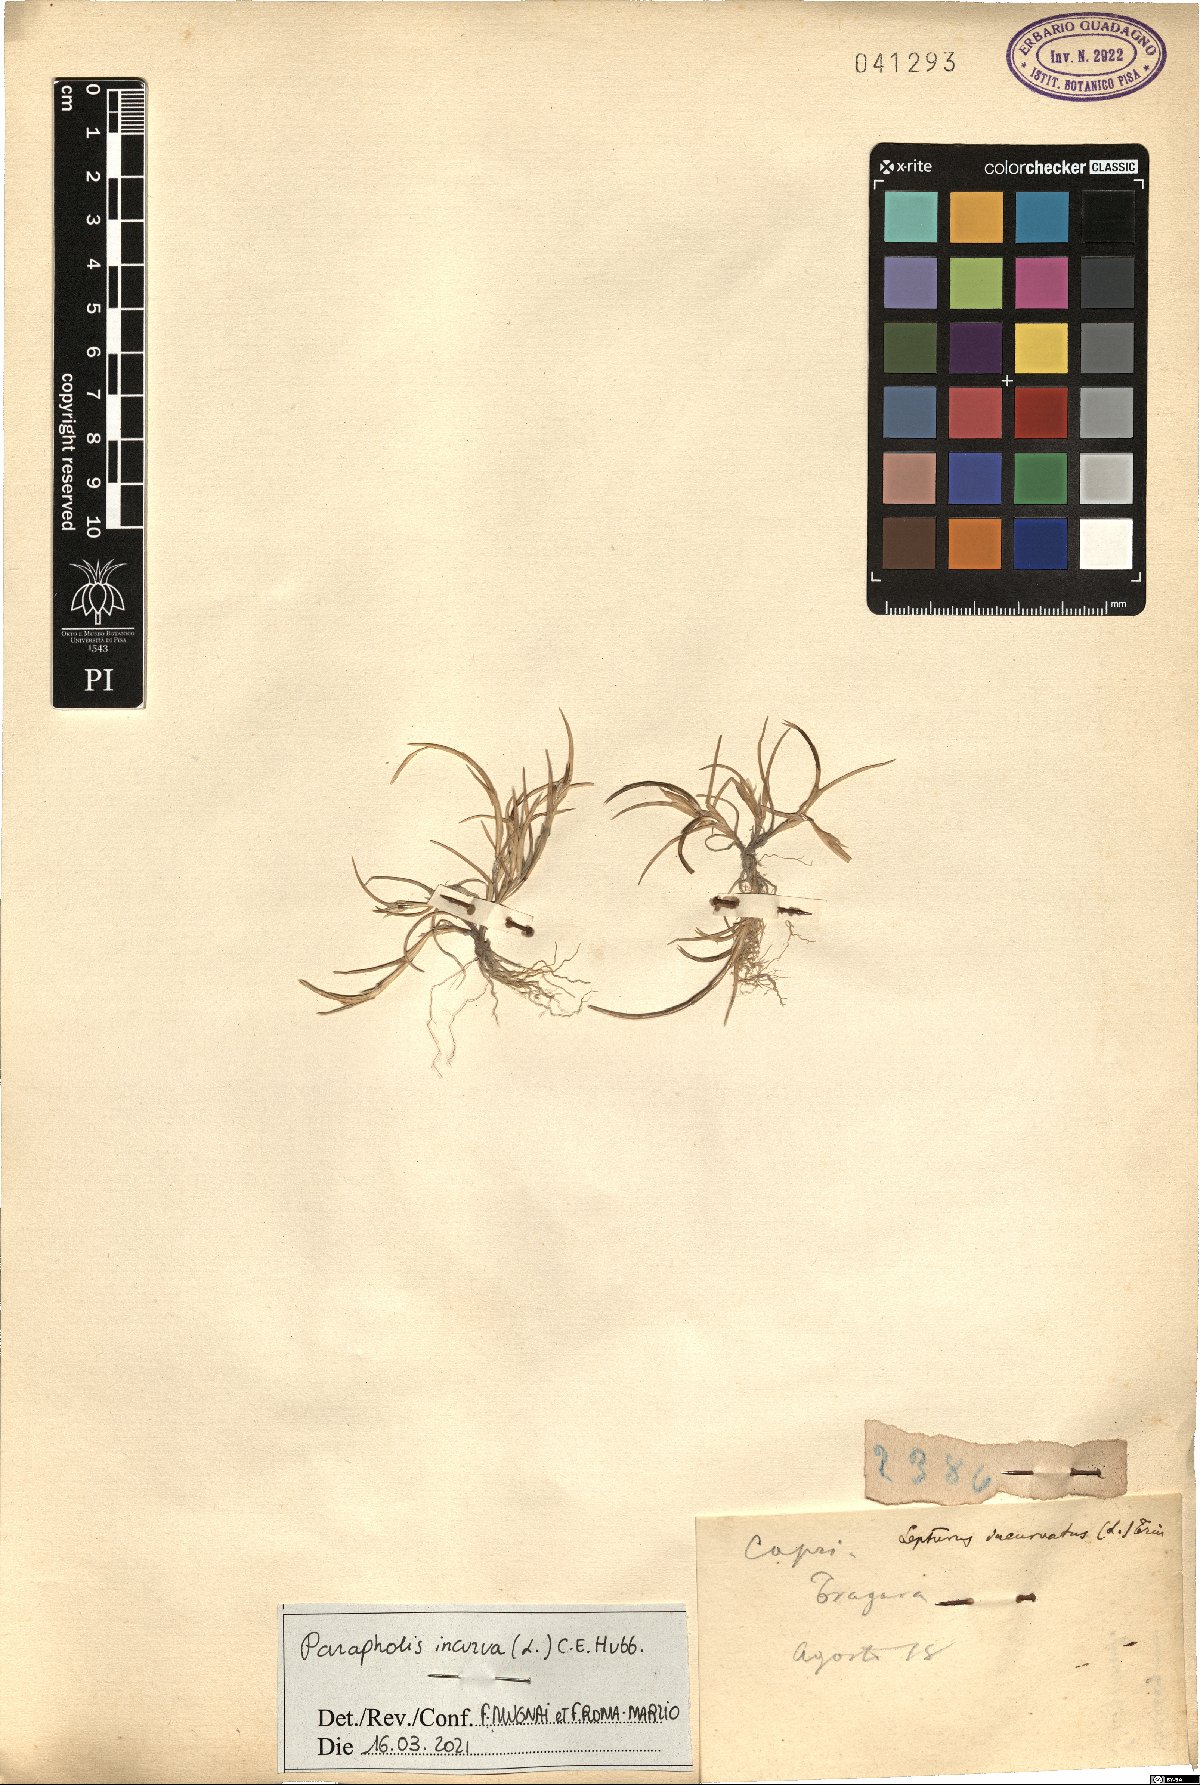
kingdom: Plantae
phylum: Tracheophyta
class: Liliopsida
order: Poales
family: Poaceae
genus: Parapholis
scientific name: Parapholis incurva
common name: Curved sicklegrass
